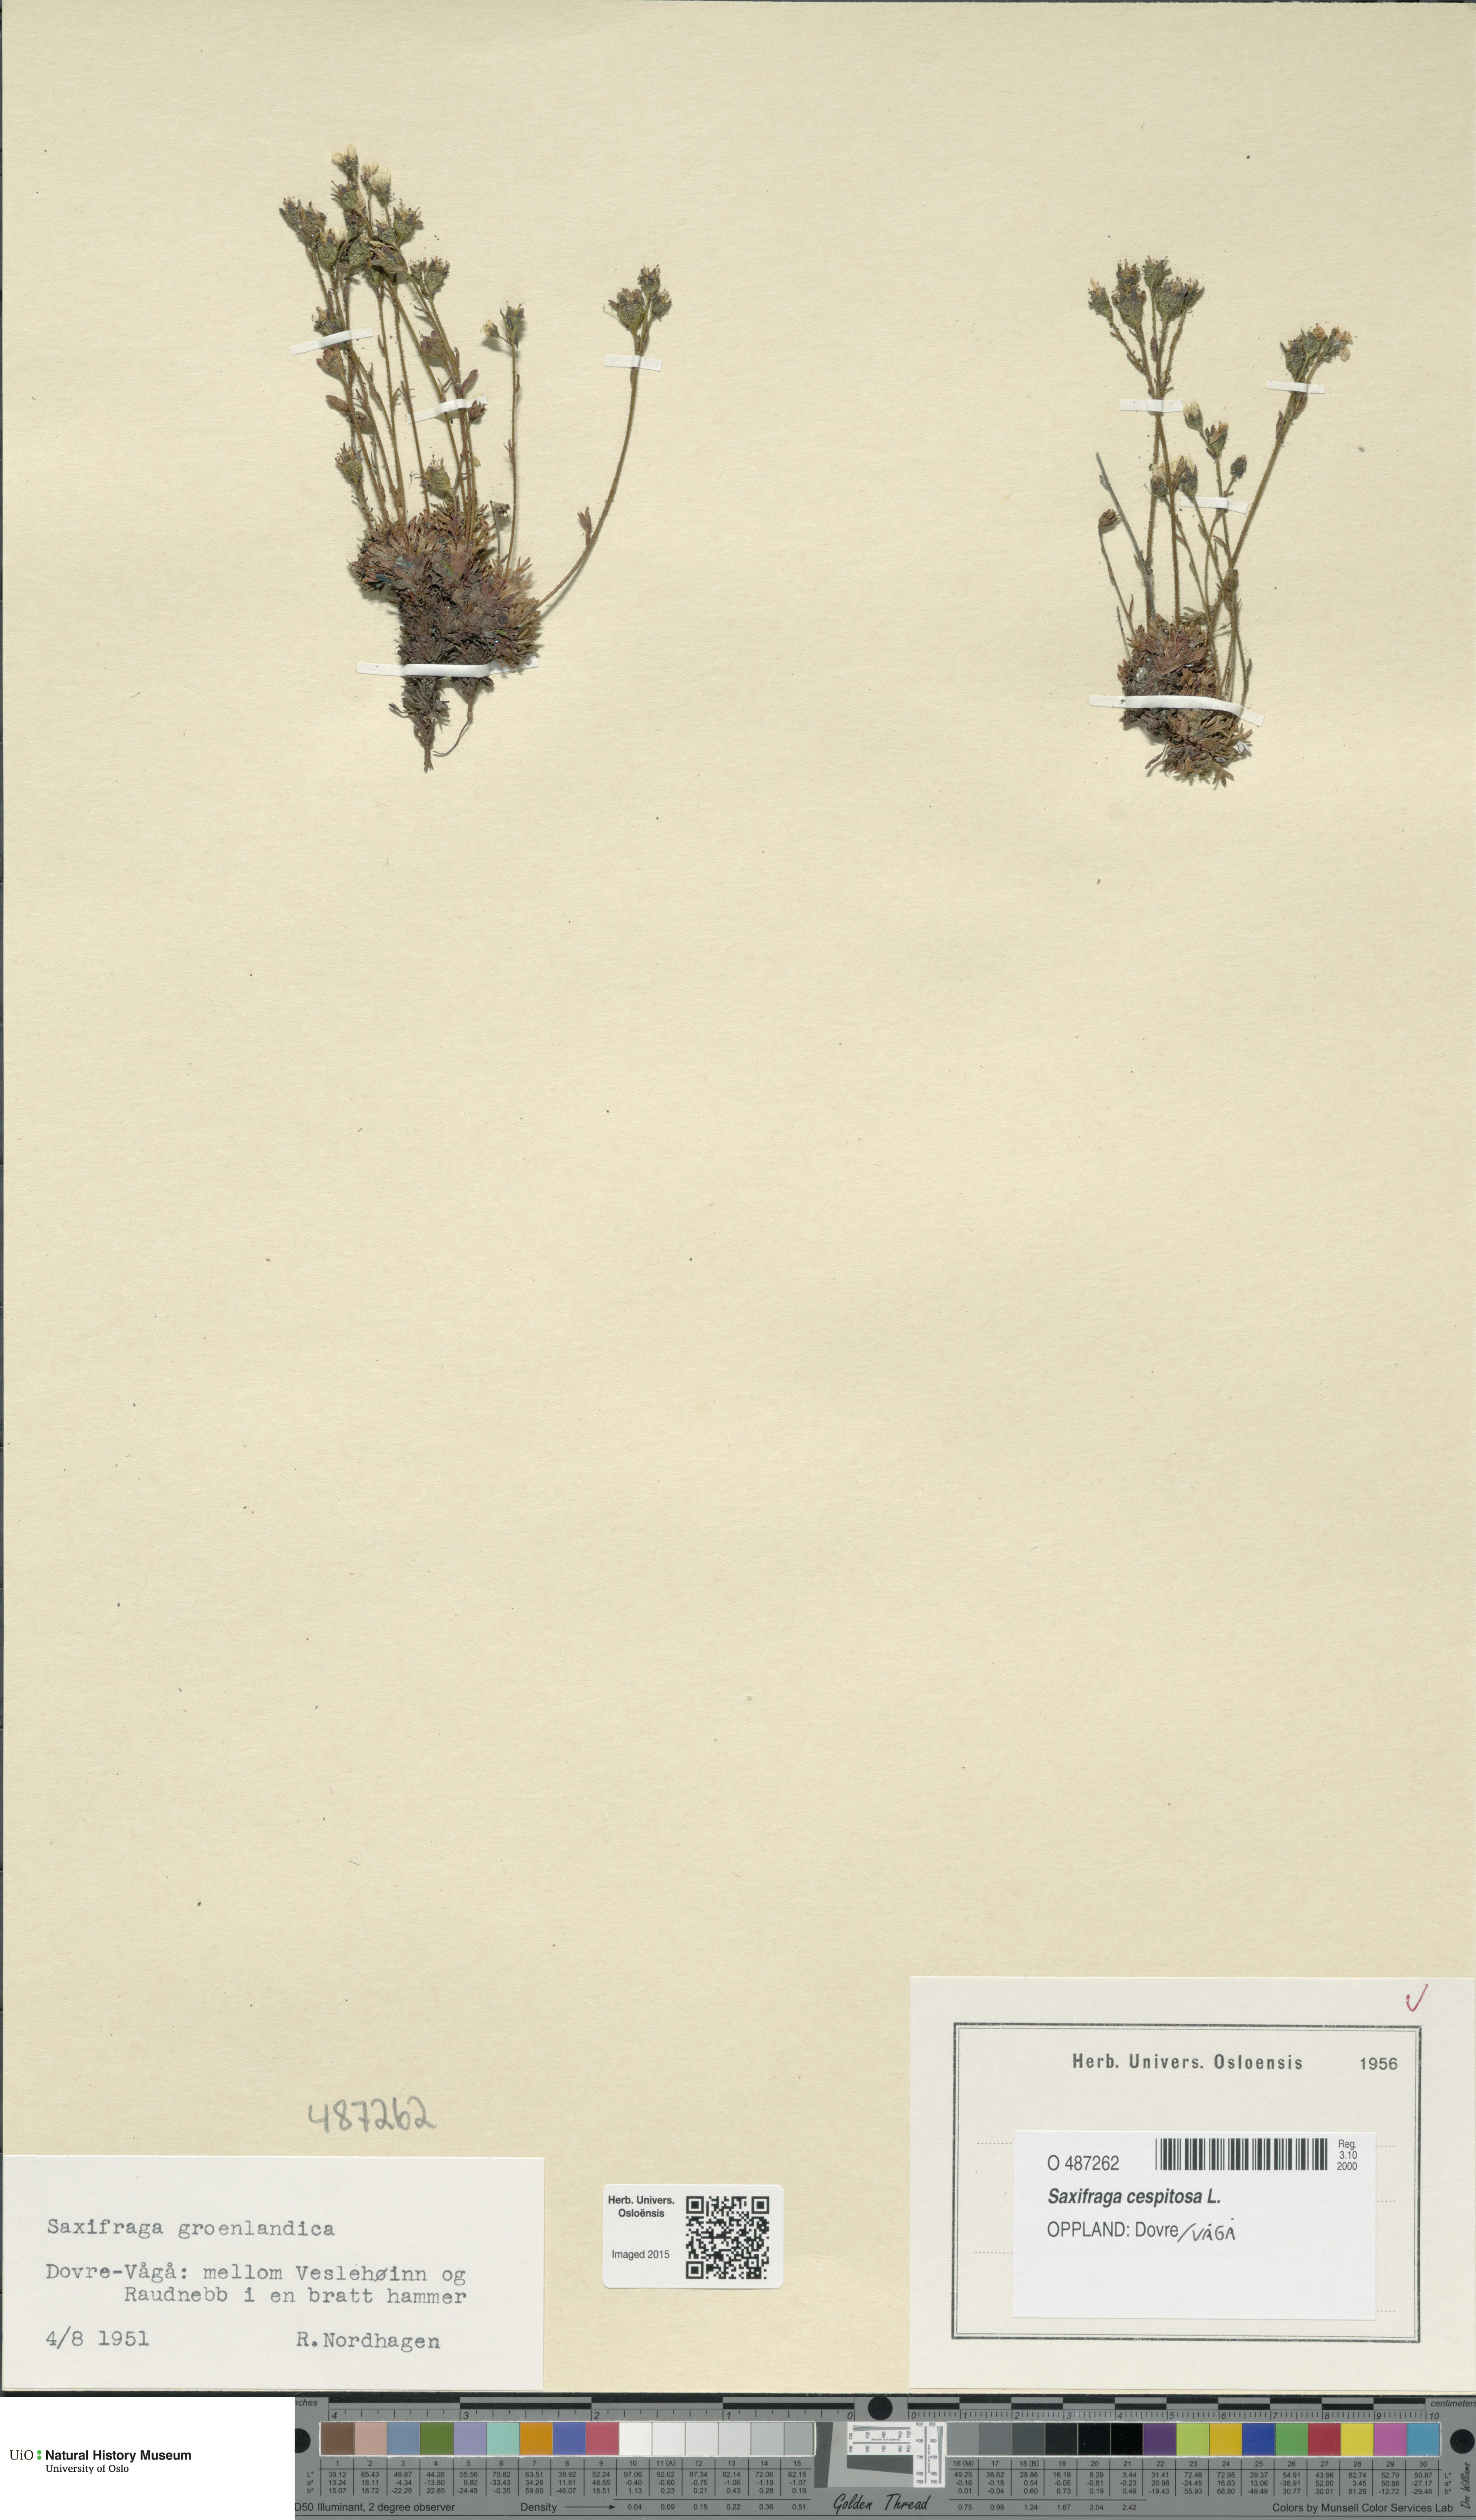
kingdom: Plantae
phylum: Tracheophyta
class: Magnoliopsida
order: Saxifragales
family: Saxifragaceae
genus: Saxifraga
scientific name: Saxifraga cespitosa
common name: Tufted saxifrage
